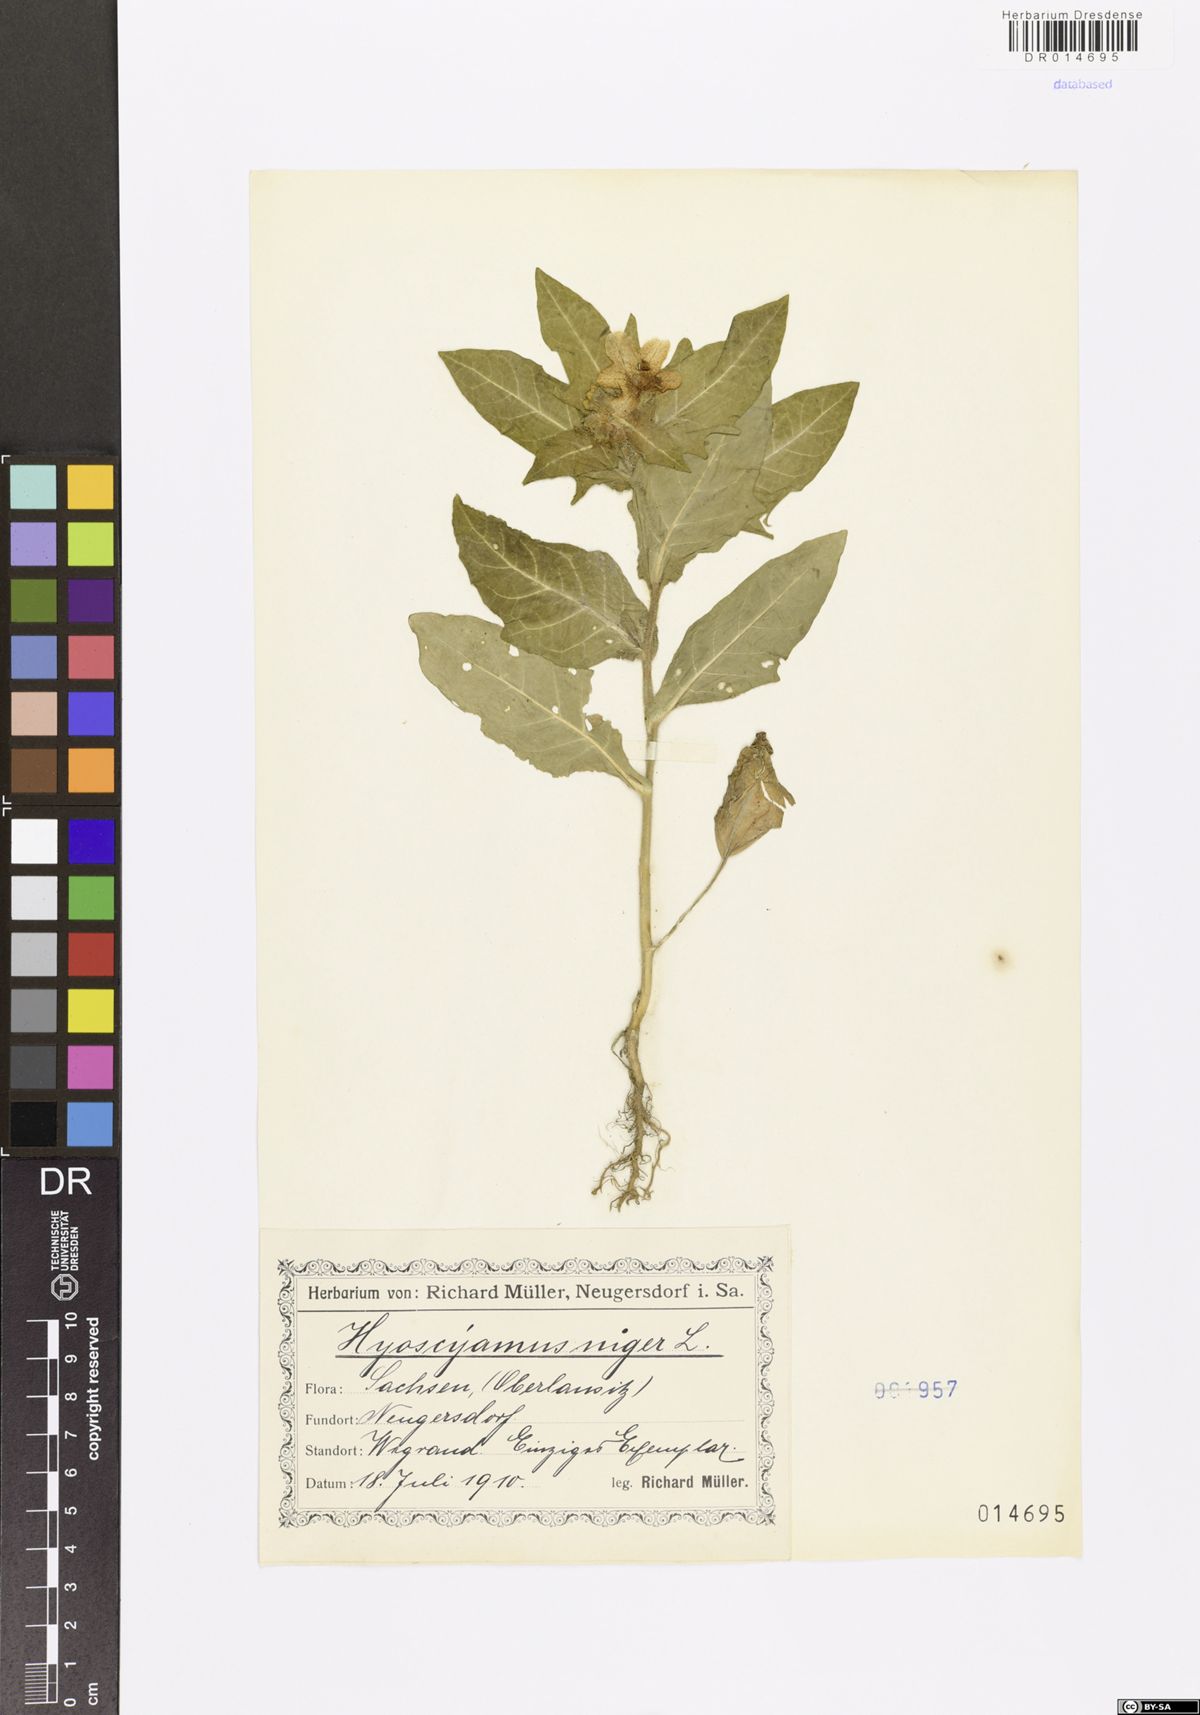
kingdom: Plantae
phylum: Tracheophyta
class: Magnoliopsida
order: Solanales
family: Solanaceae
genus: Hyoscyamus
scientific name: Hyoscyamus niger
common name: Henbane
